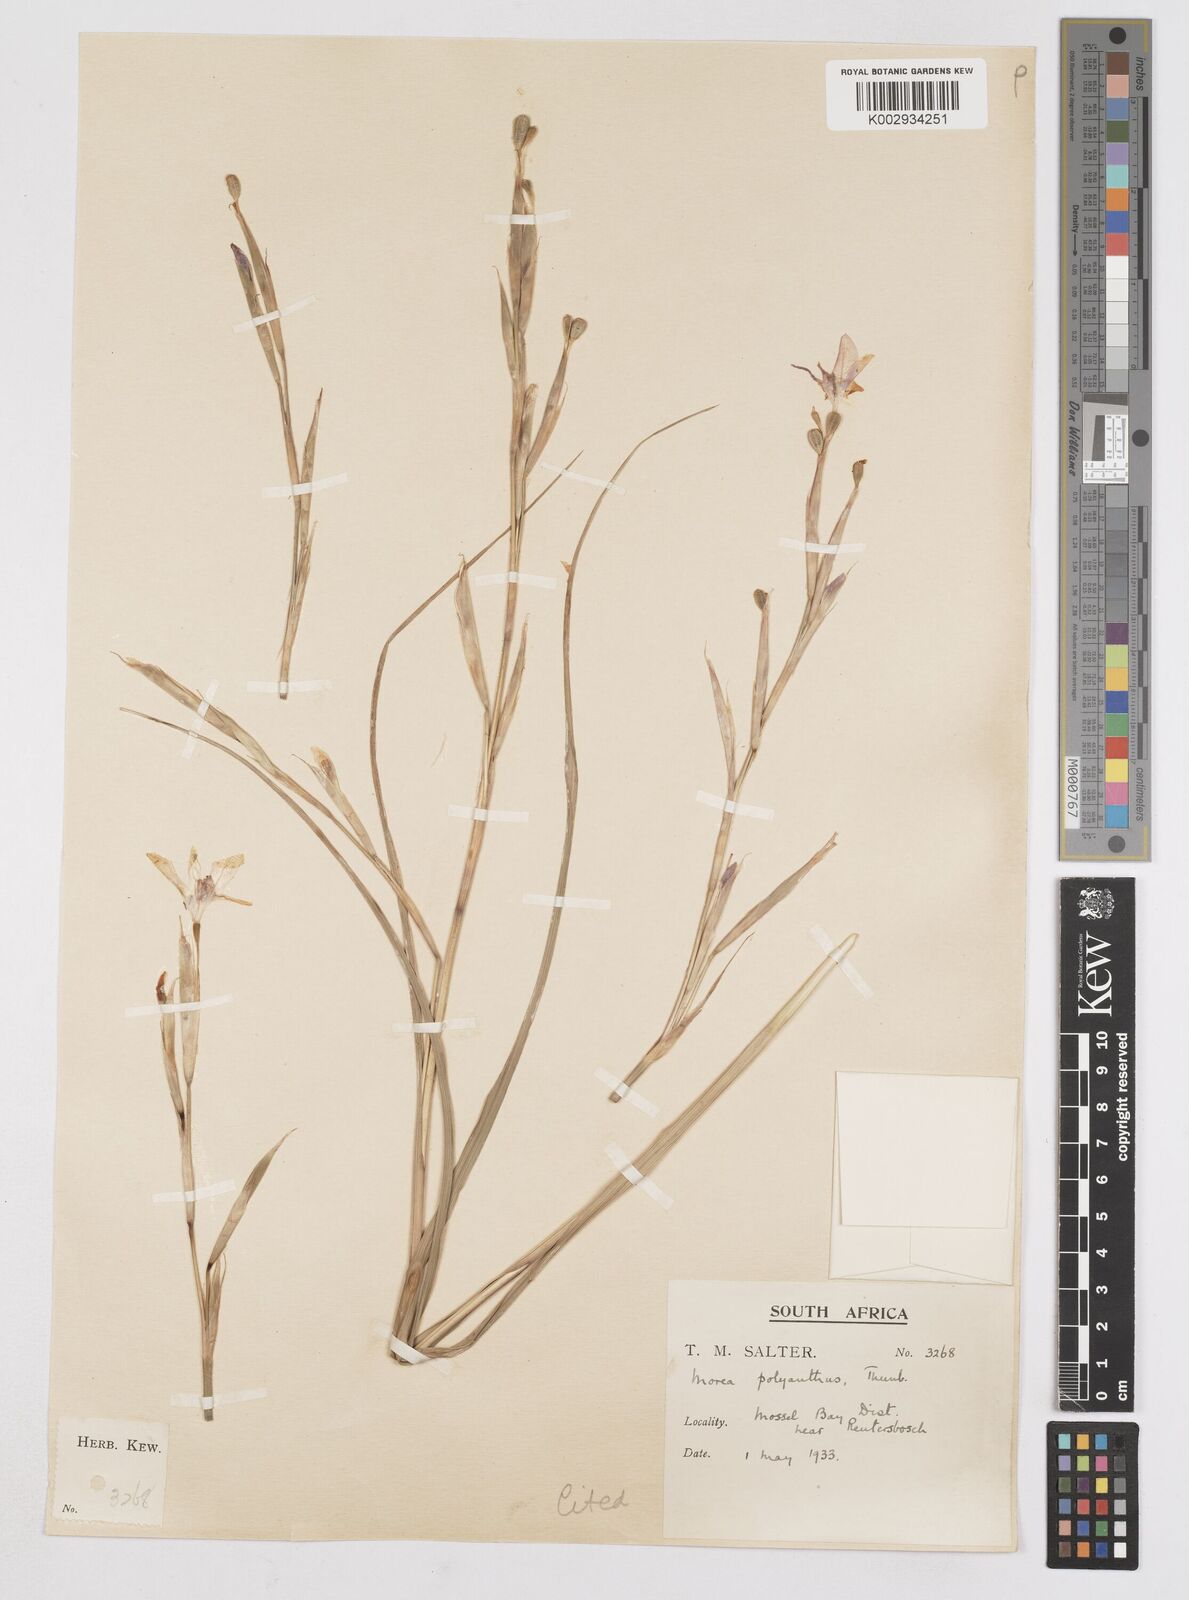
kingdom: Plantae
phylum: Tracheophyta
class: Liliopsida
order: Asparagales
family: Iridaceae
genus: Moraea
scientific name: Moraea bipartita
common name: Blue tulp
